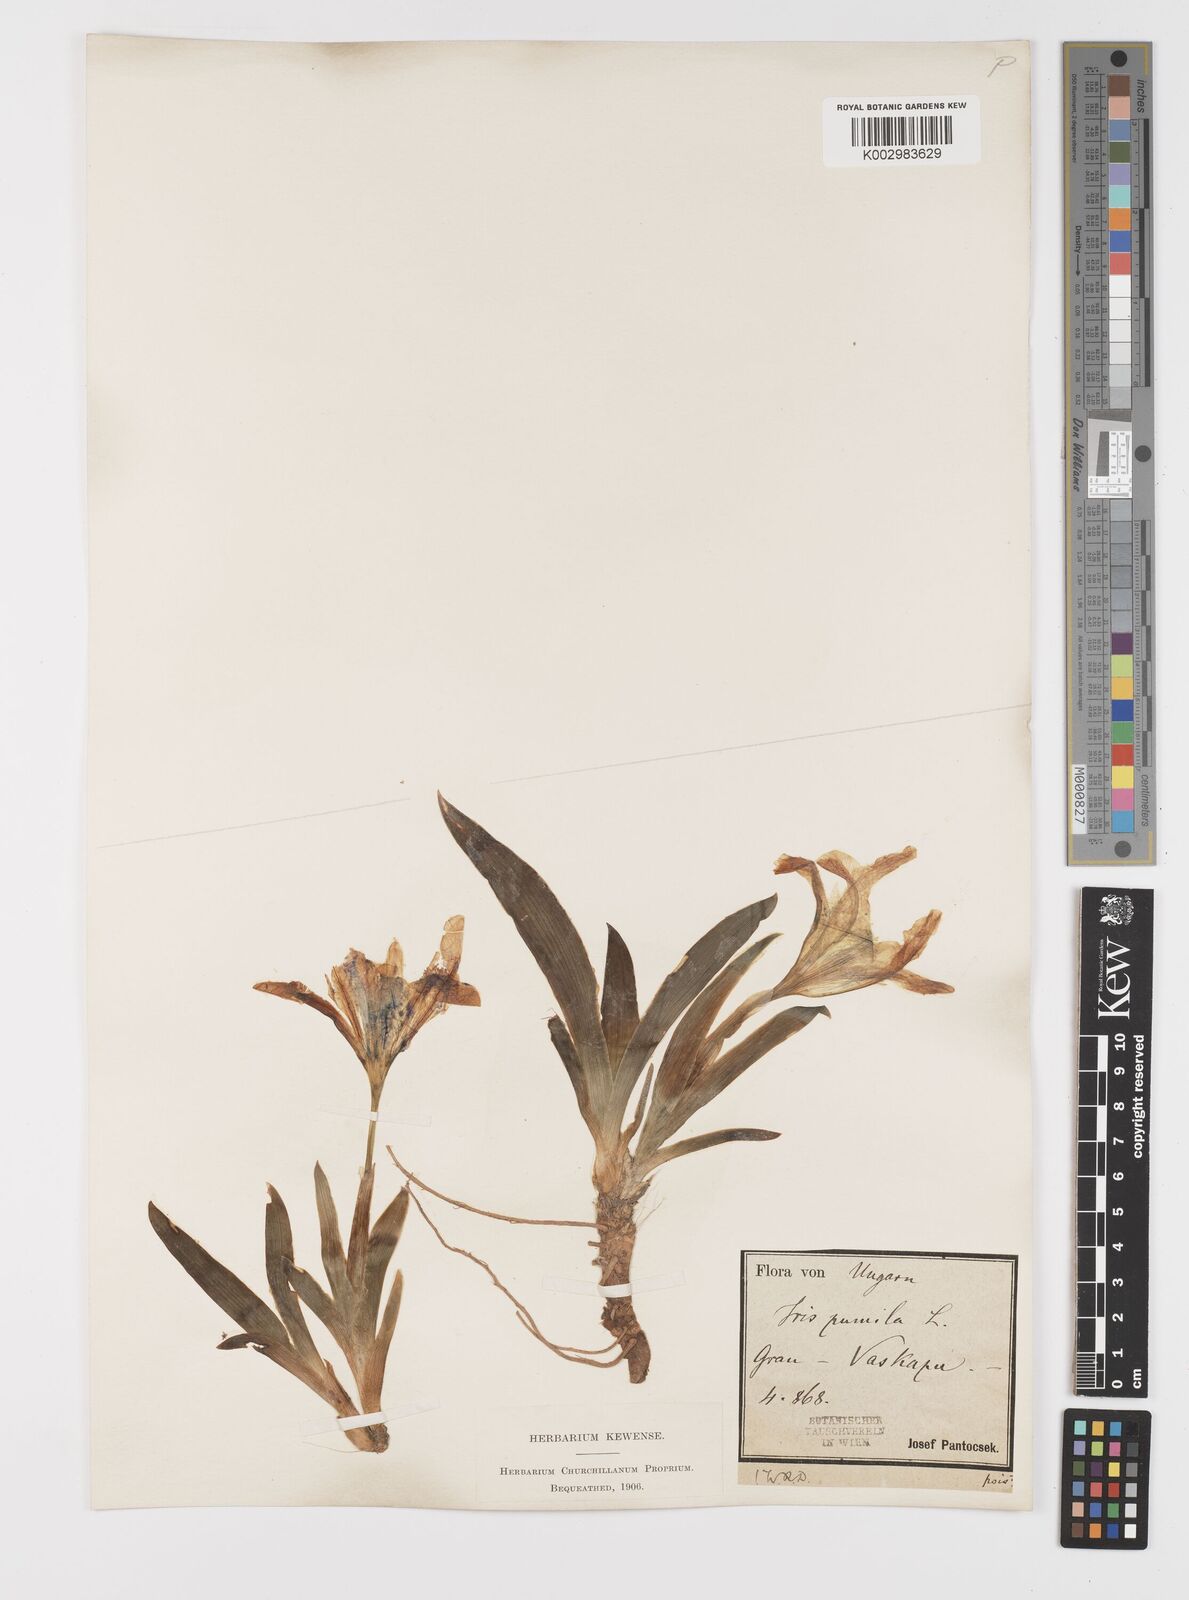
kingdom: Plantae
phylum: Tracheophyta
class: Liliopsida
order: Asparagales
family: Iridaceae
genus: Iris
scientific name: Iris pumila
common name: Dwarf iris
